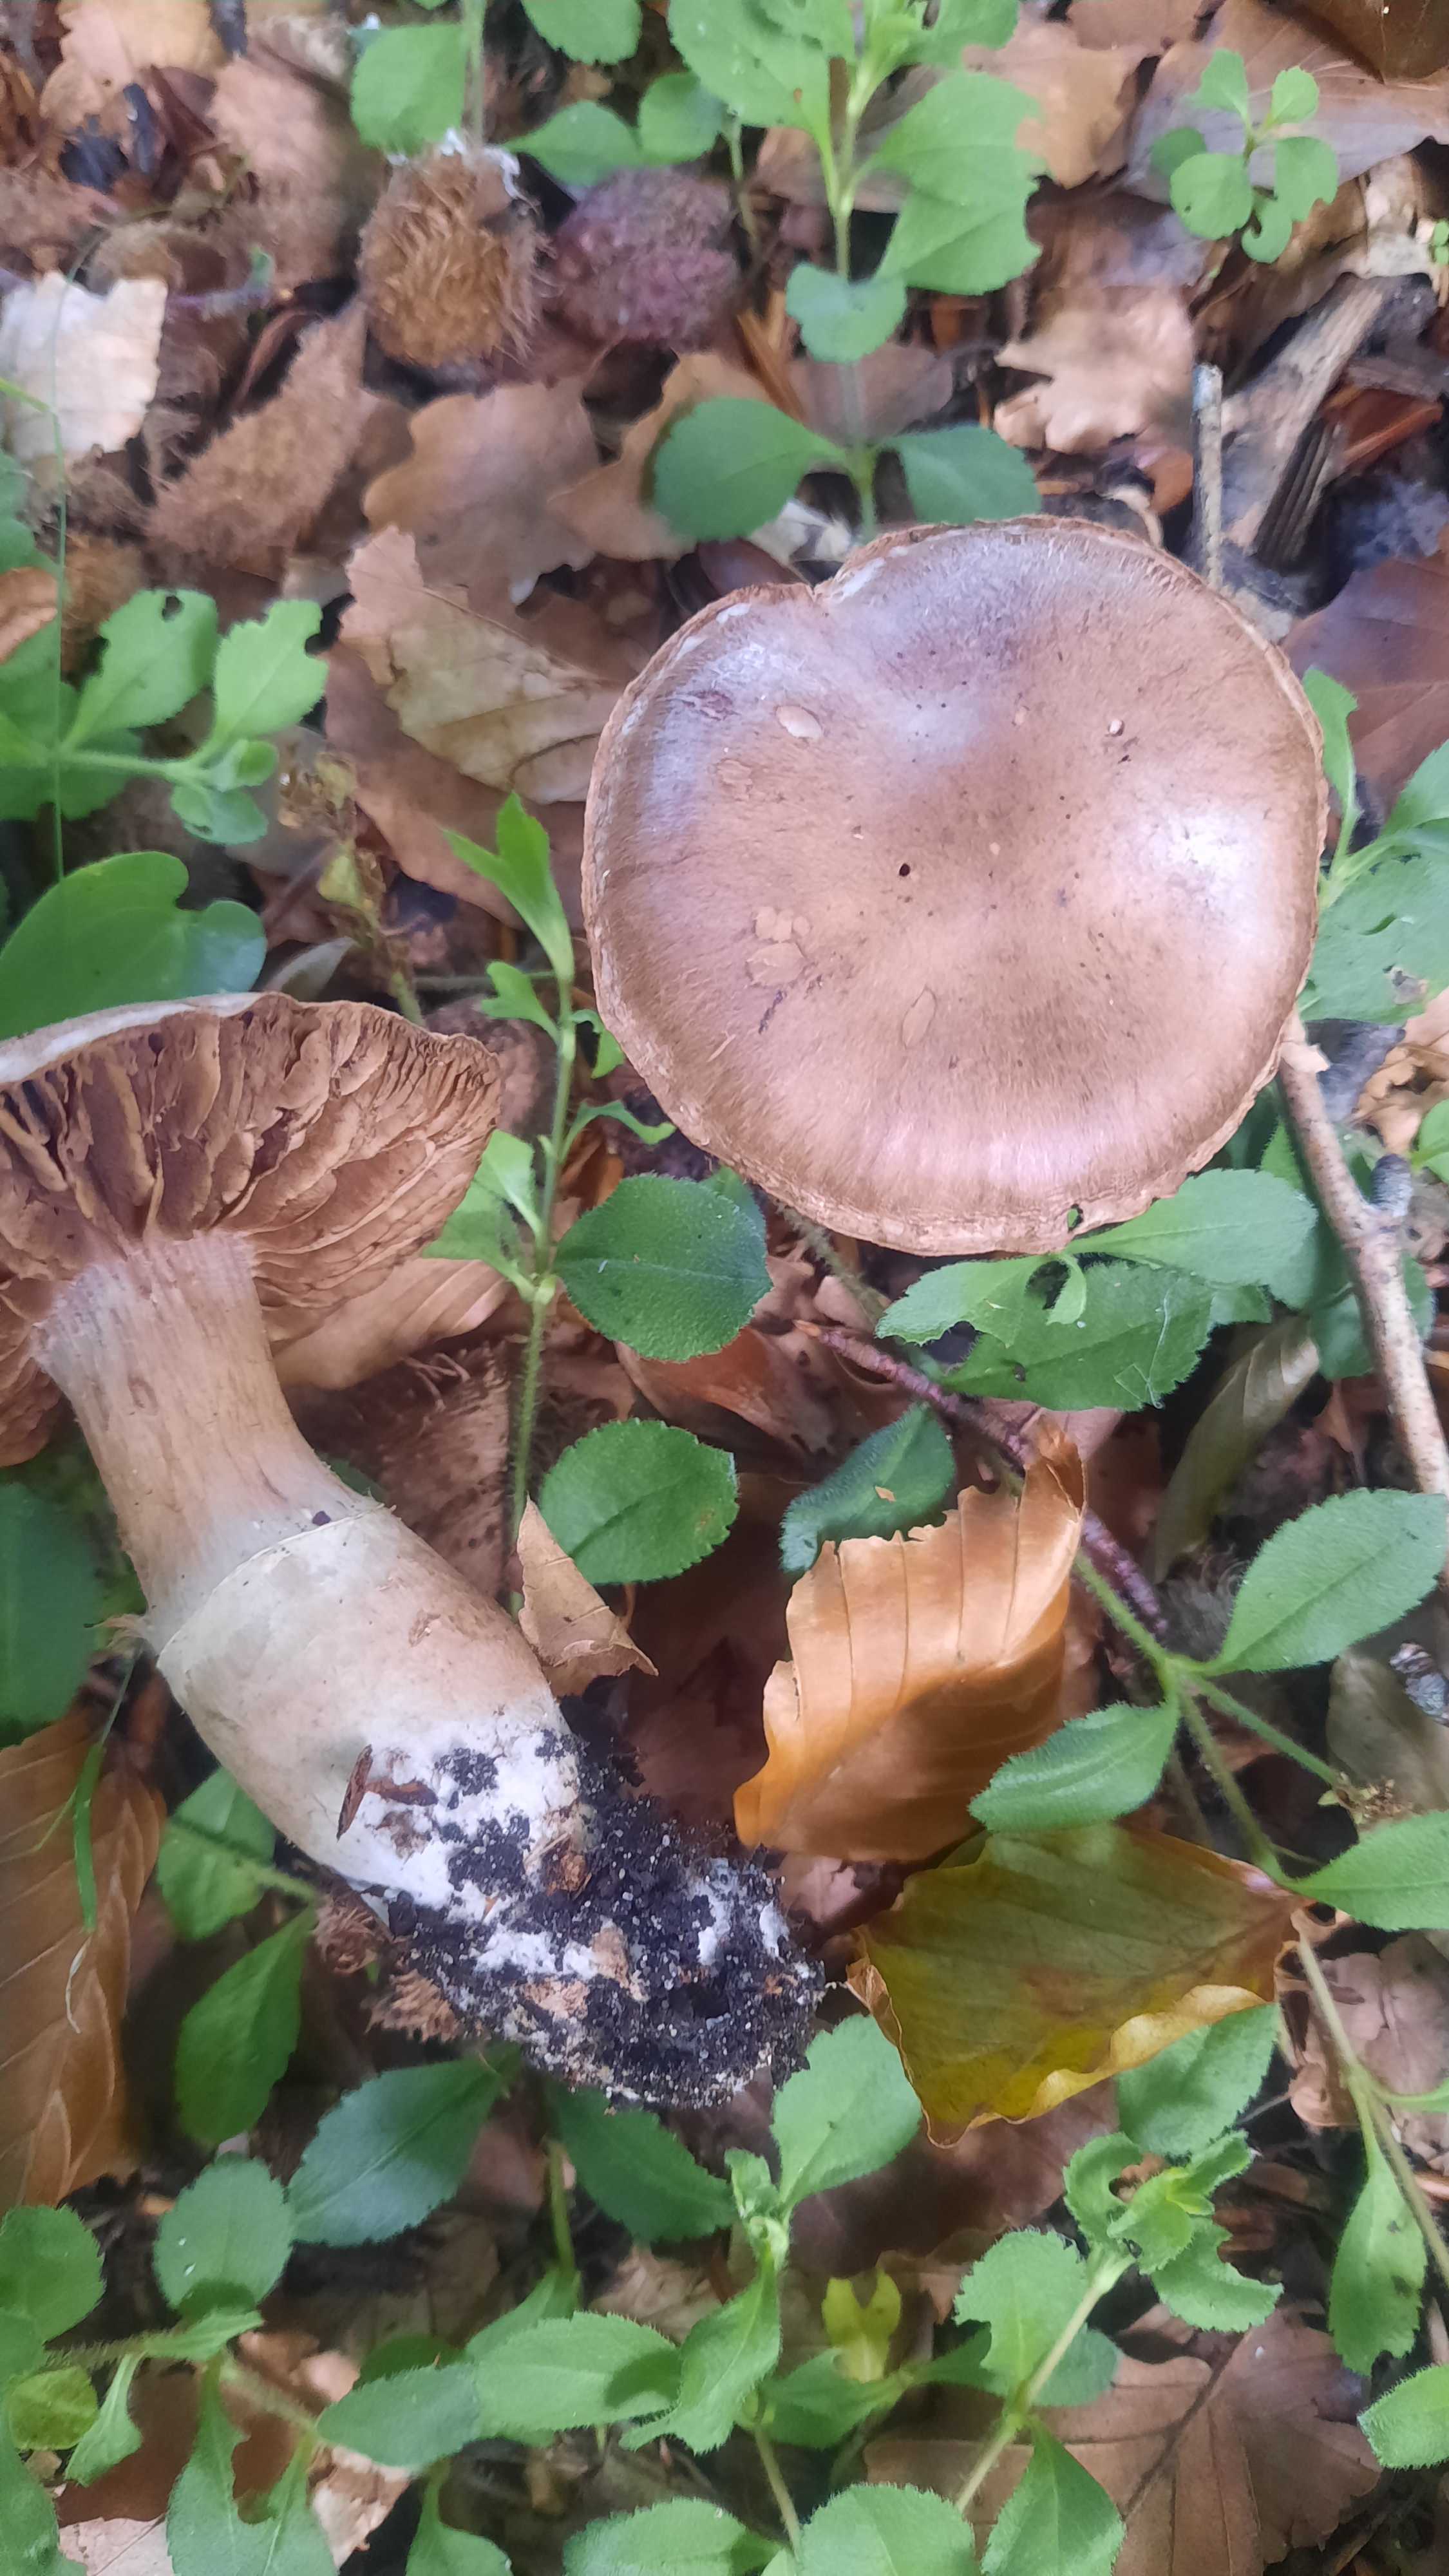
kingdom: Fungi
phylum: Basidiomycota
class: Agaricomycetes
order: Agaricales
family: Cortinariaceae
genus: Cortinarius
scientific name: Cortinarius torvus
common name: champignonagtig slørhat
